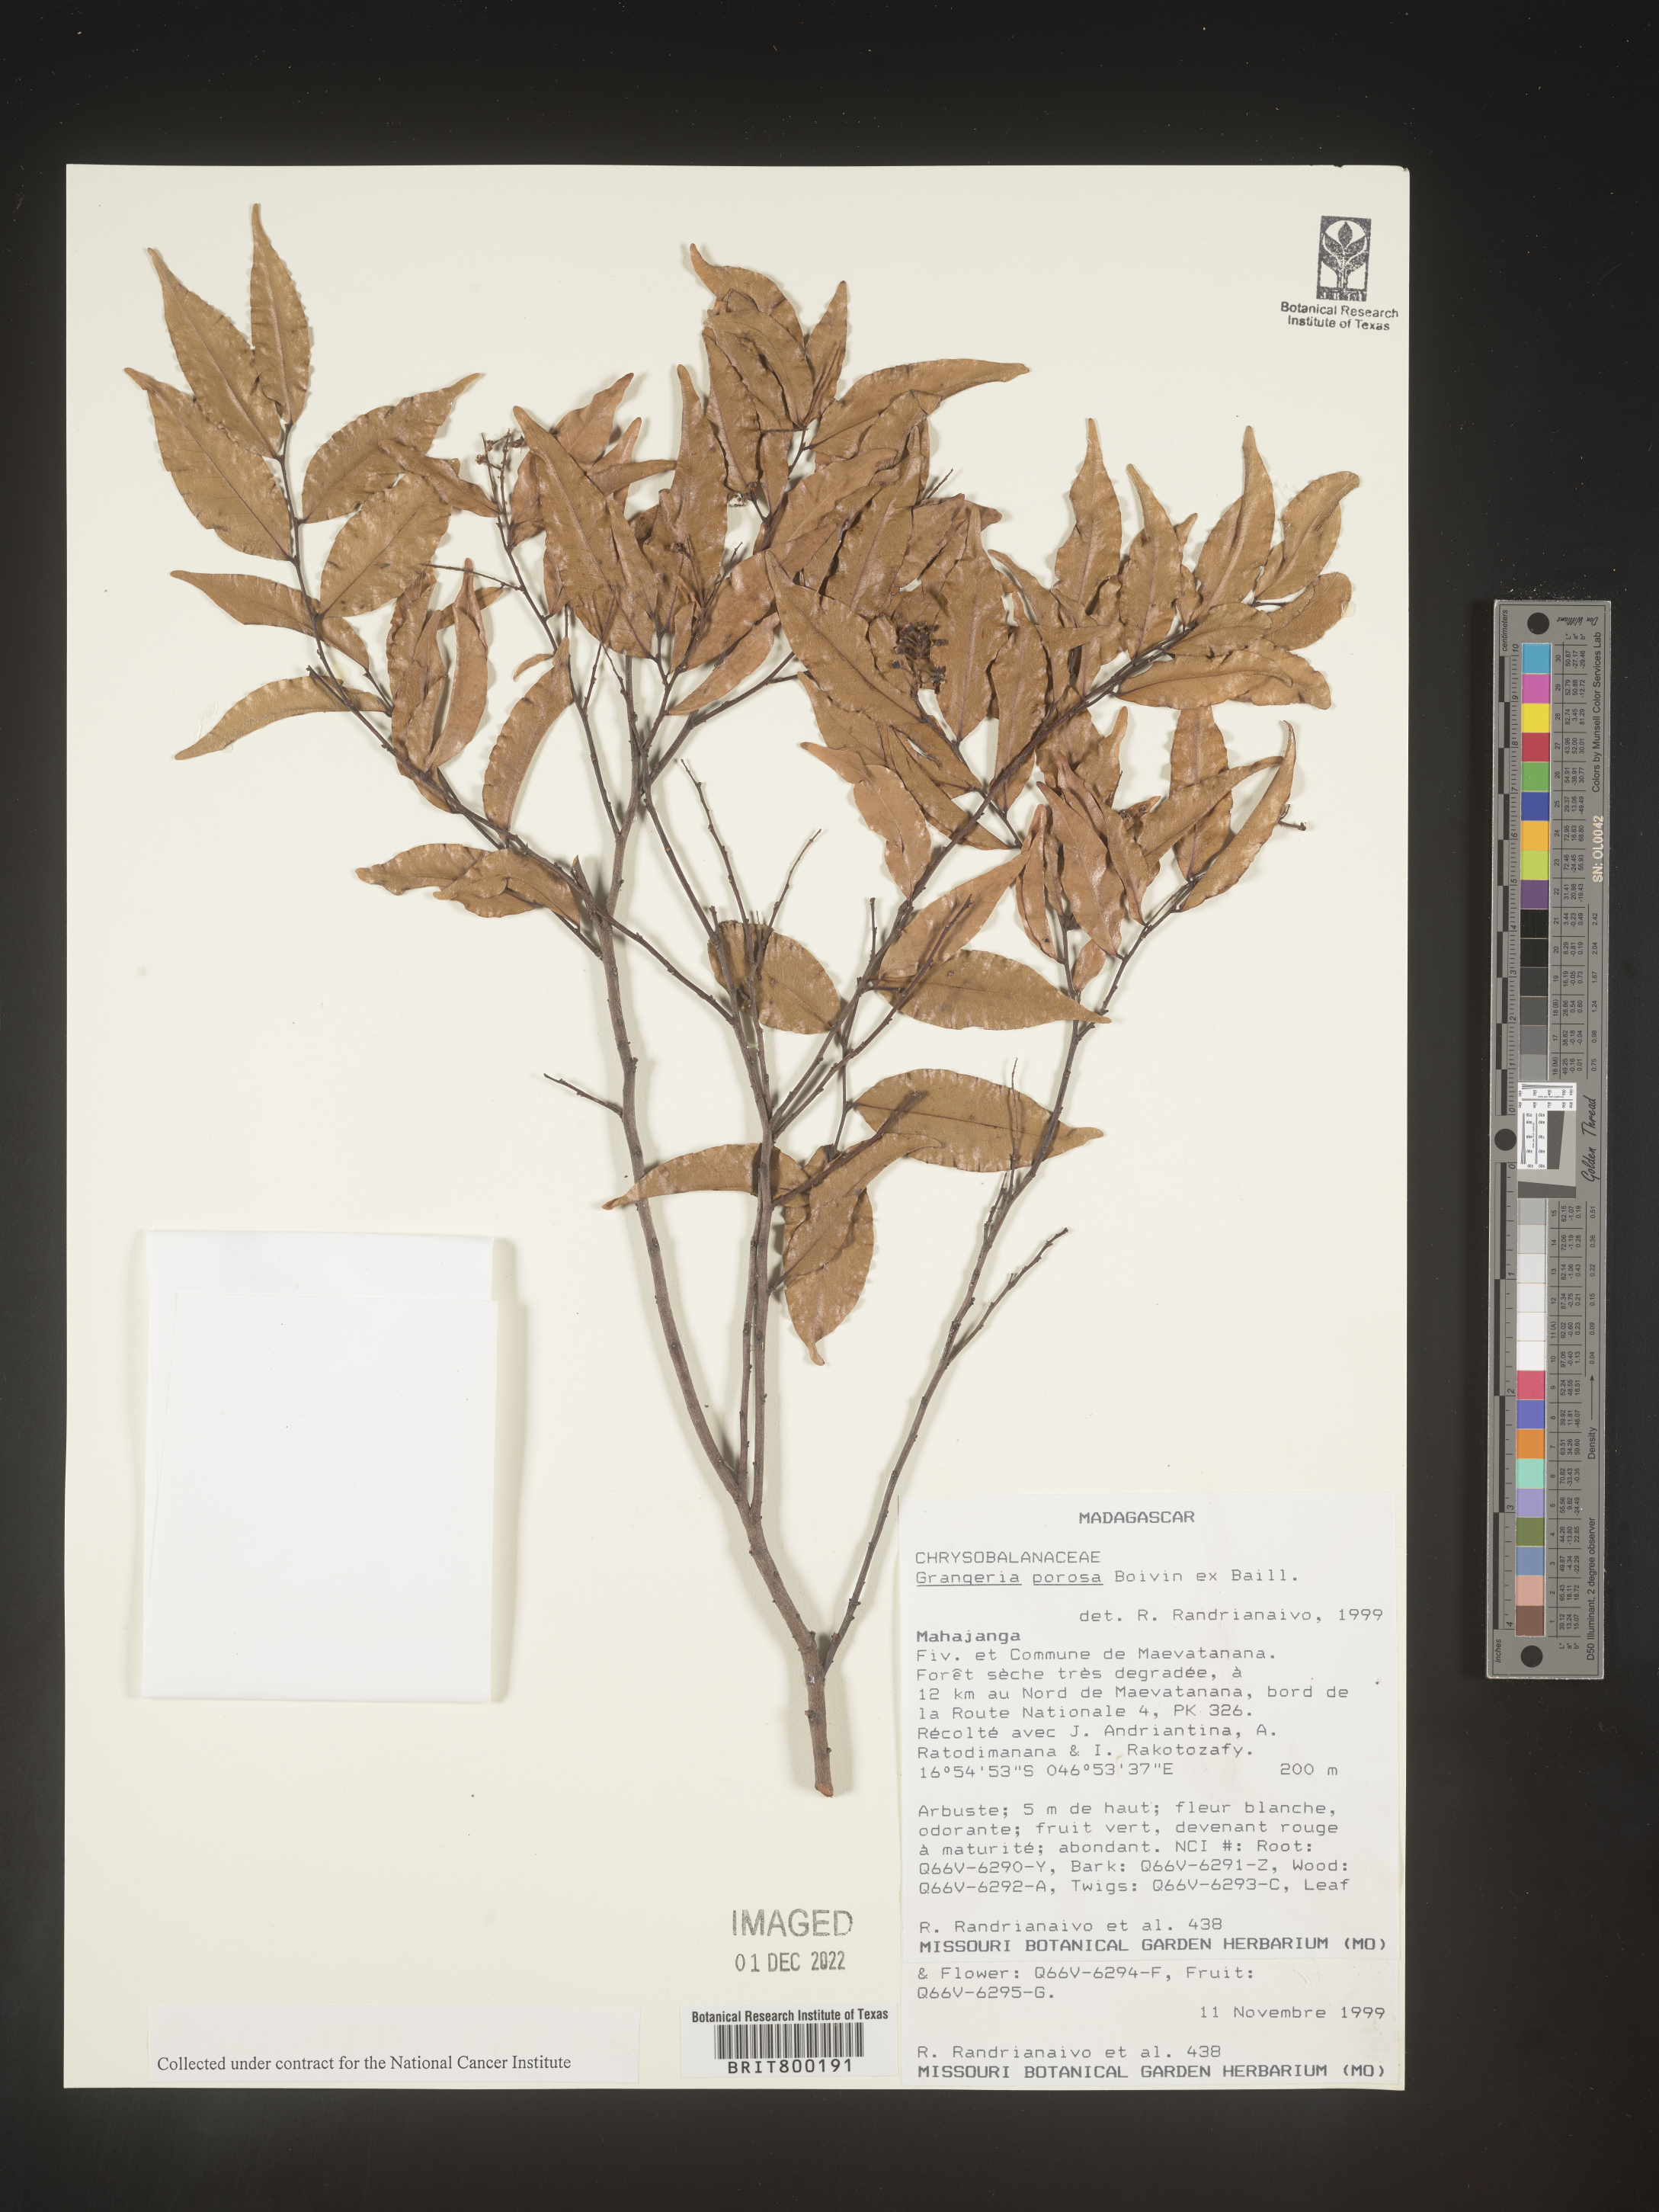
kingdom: Plantae
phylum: Tracheophyta
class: Magnoliopsida
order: Malpighiales
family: Chrysobalanaceae
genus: Grangeria
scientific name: Grangeria porosa
